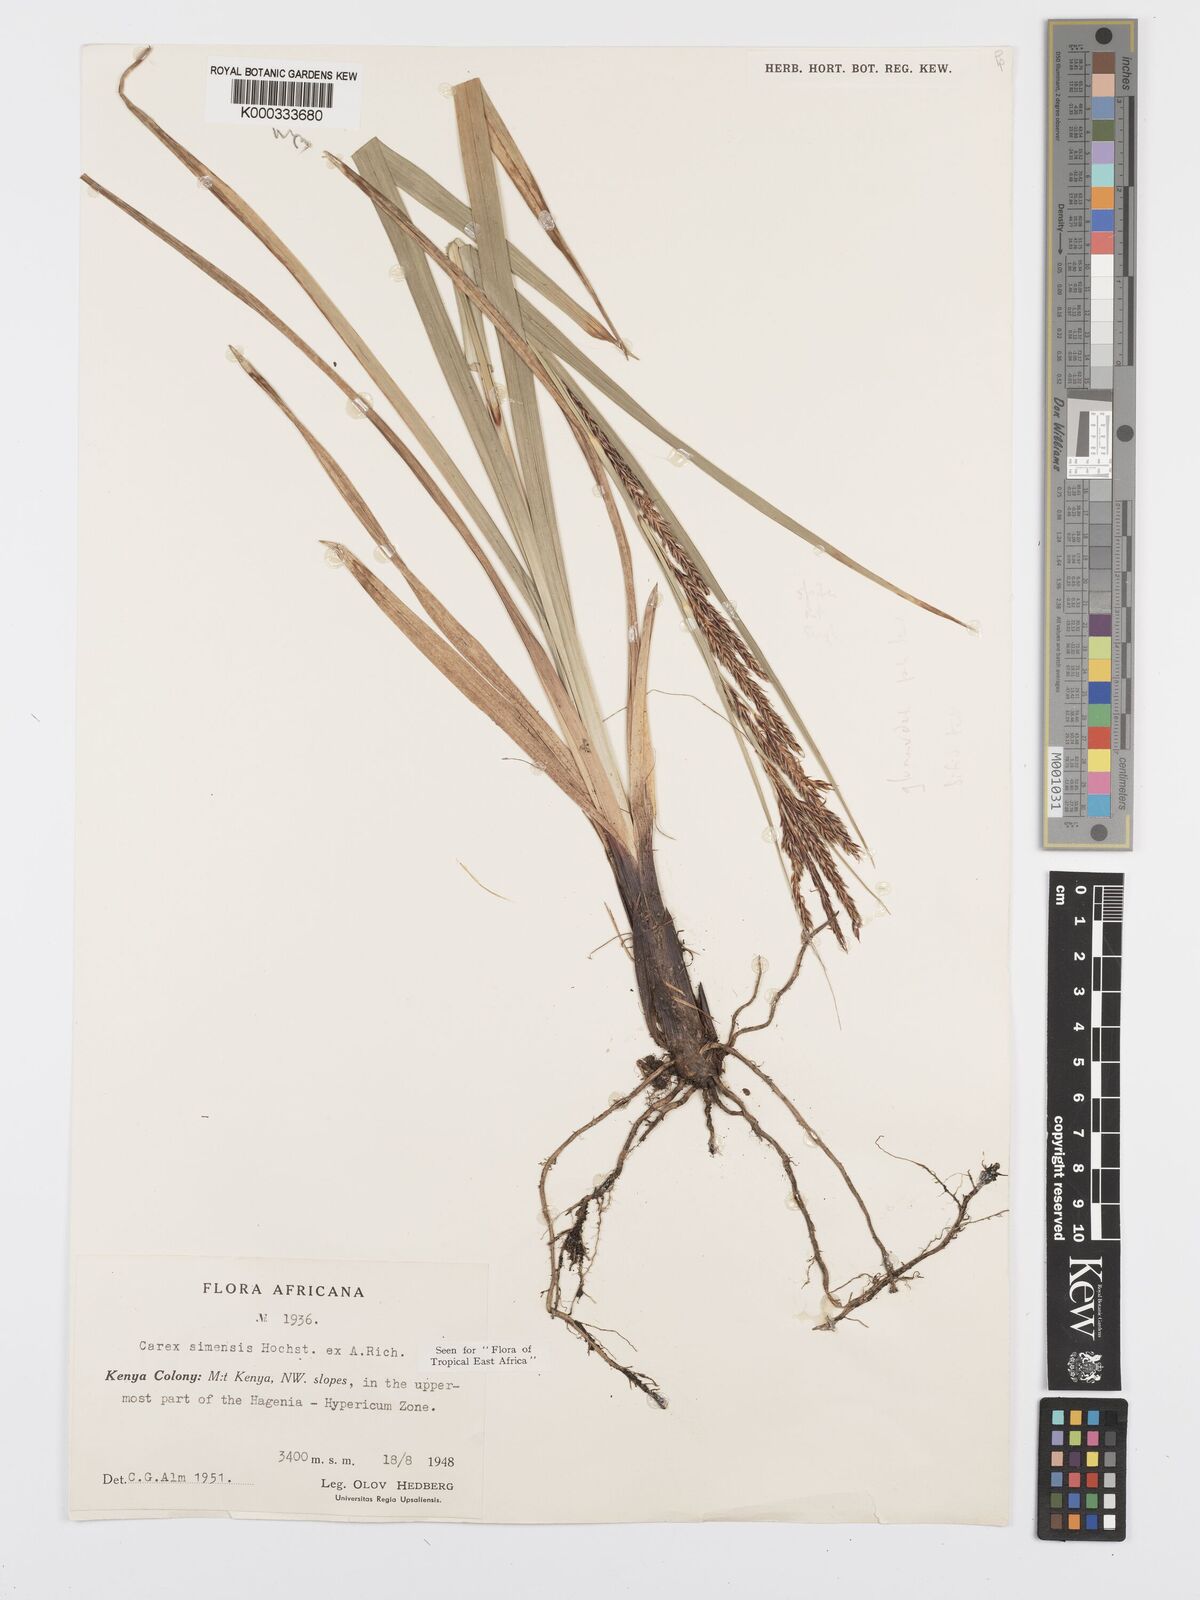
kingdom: Plantae
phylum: Tracheophyta
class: Liliopsida
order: Poales
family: Cyperaceae
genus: Carex
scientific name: Carex simensis
